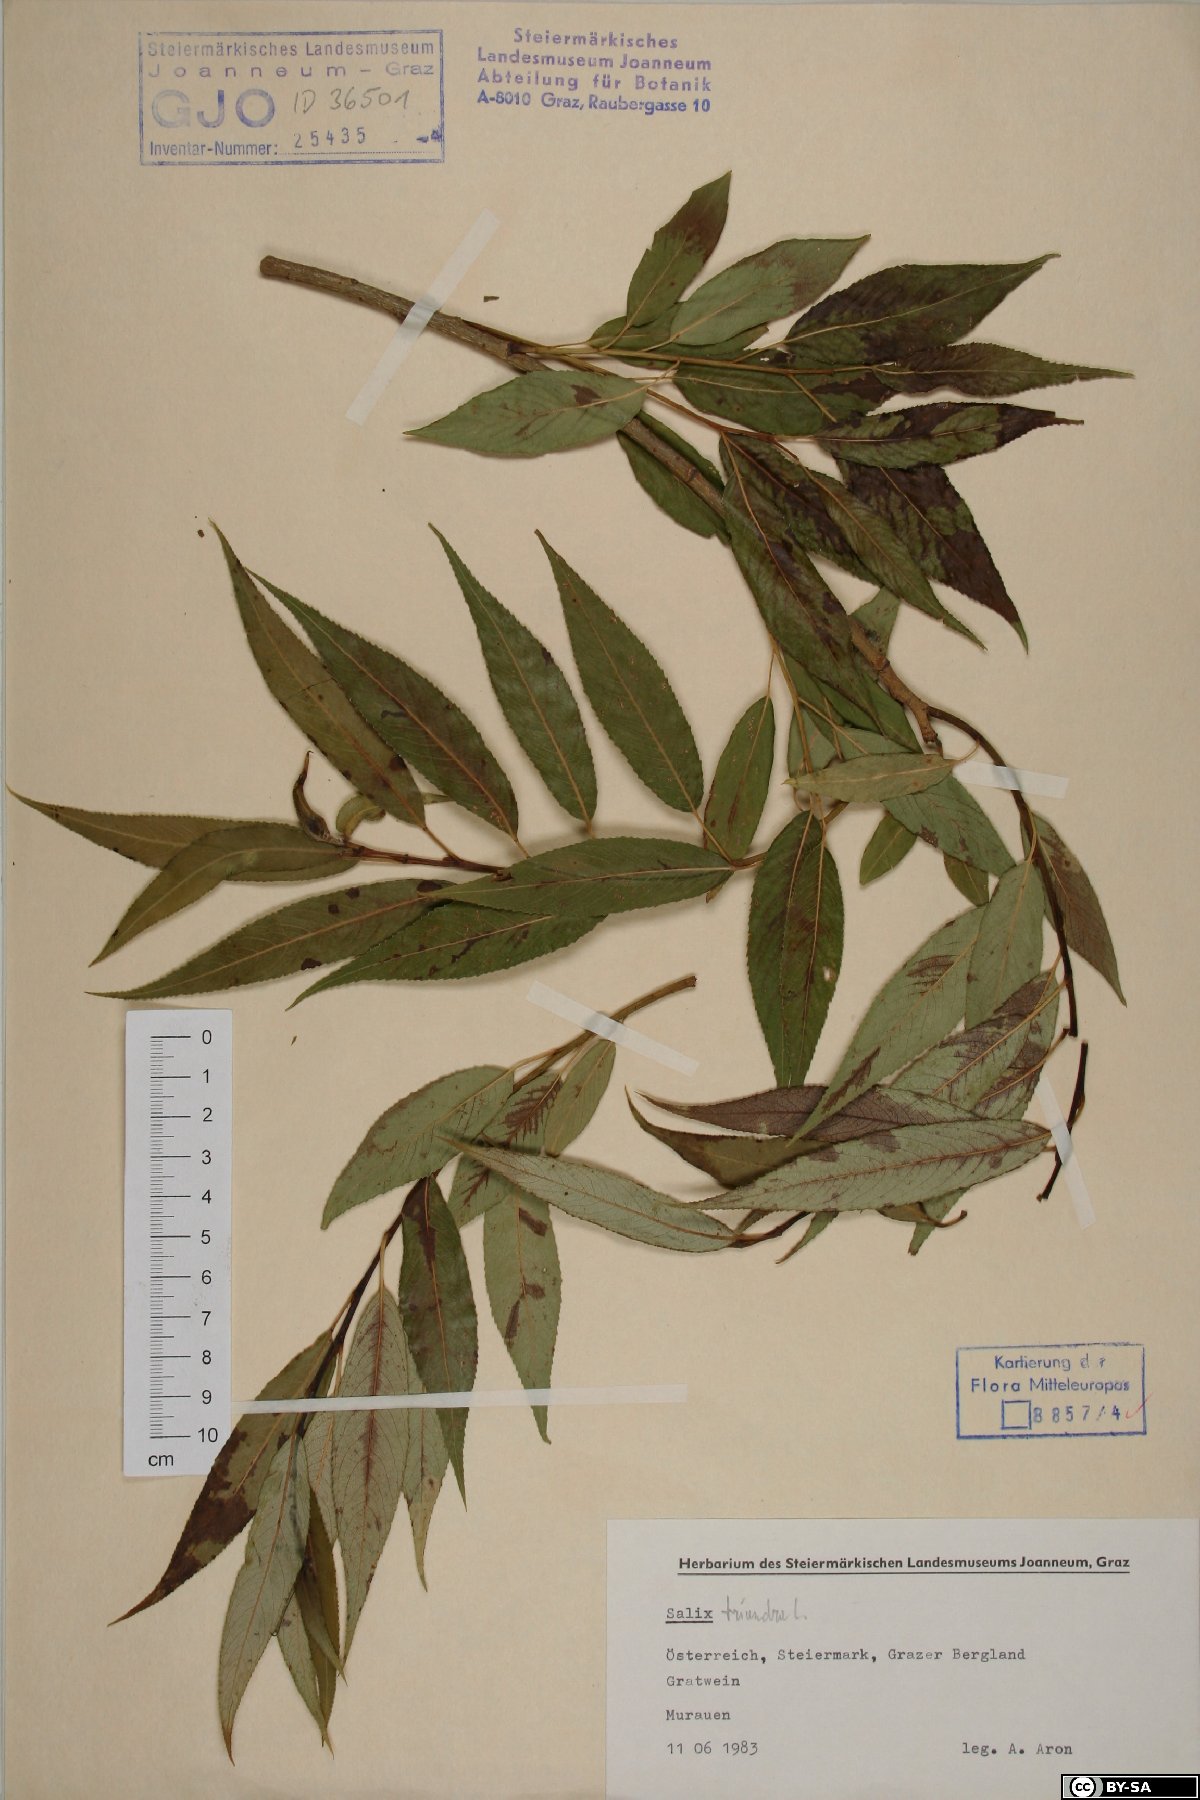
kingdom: Plantae
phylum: Tracheophyta
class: Magnoliopsida
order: Malpighiales
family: Salicaceae
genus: Salix
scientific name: Salix triandra
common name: Almond willow
